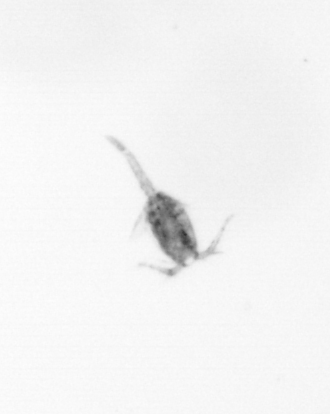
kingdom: Animalia
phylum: Arthropoda
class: Copepoda
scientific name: Copepoda
